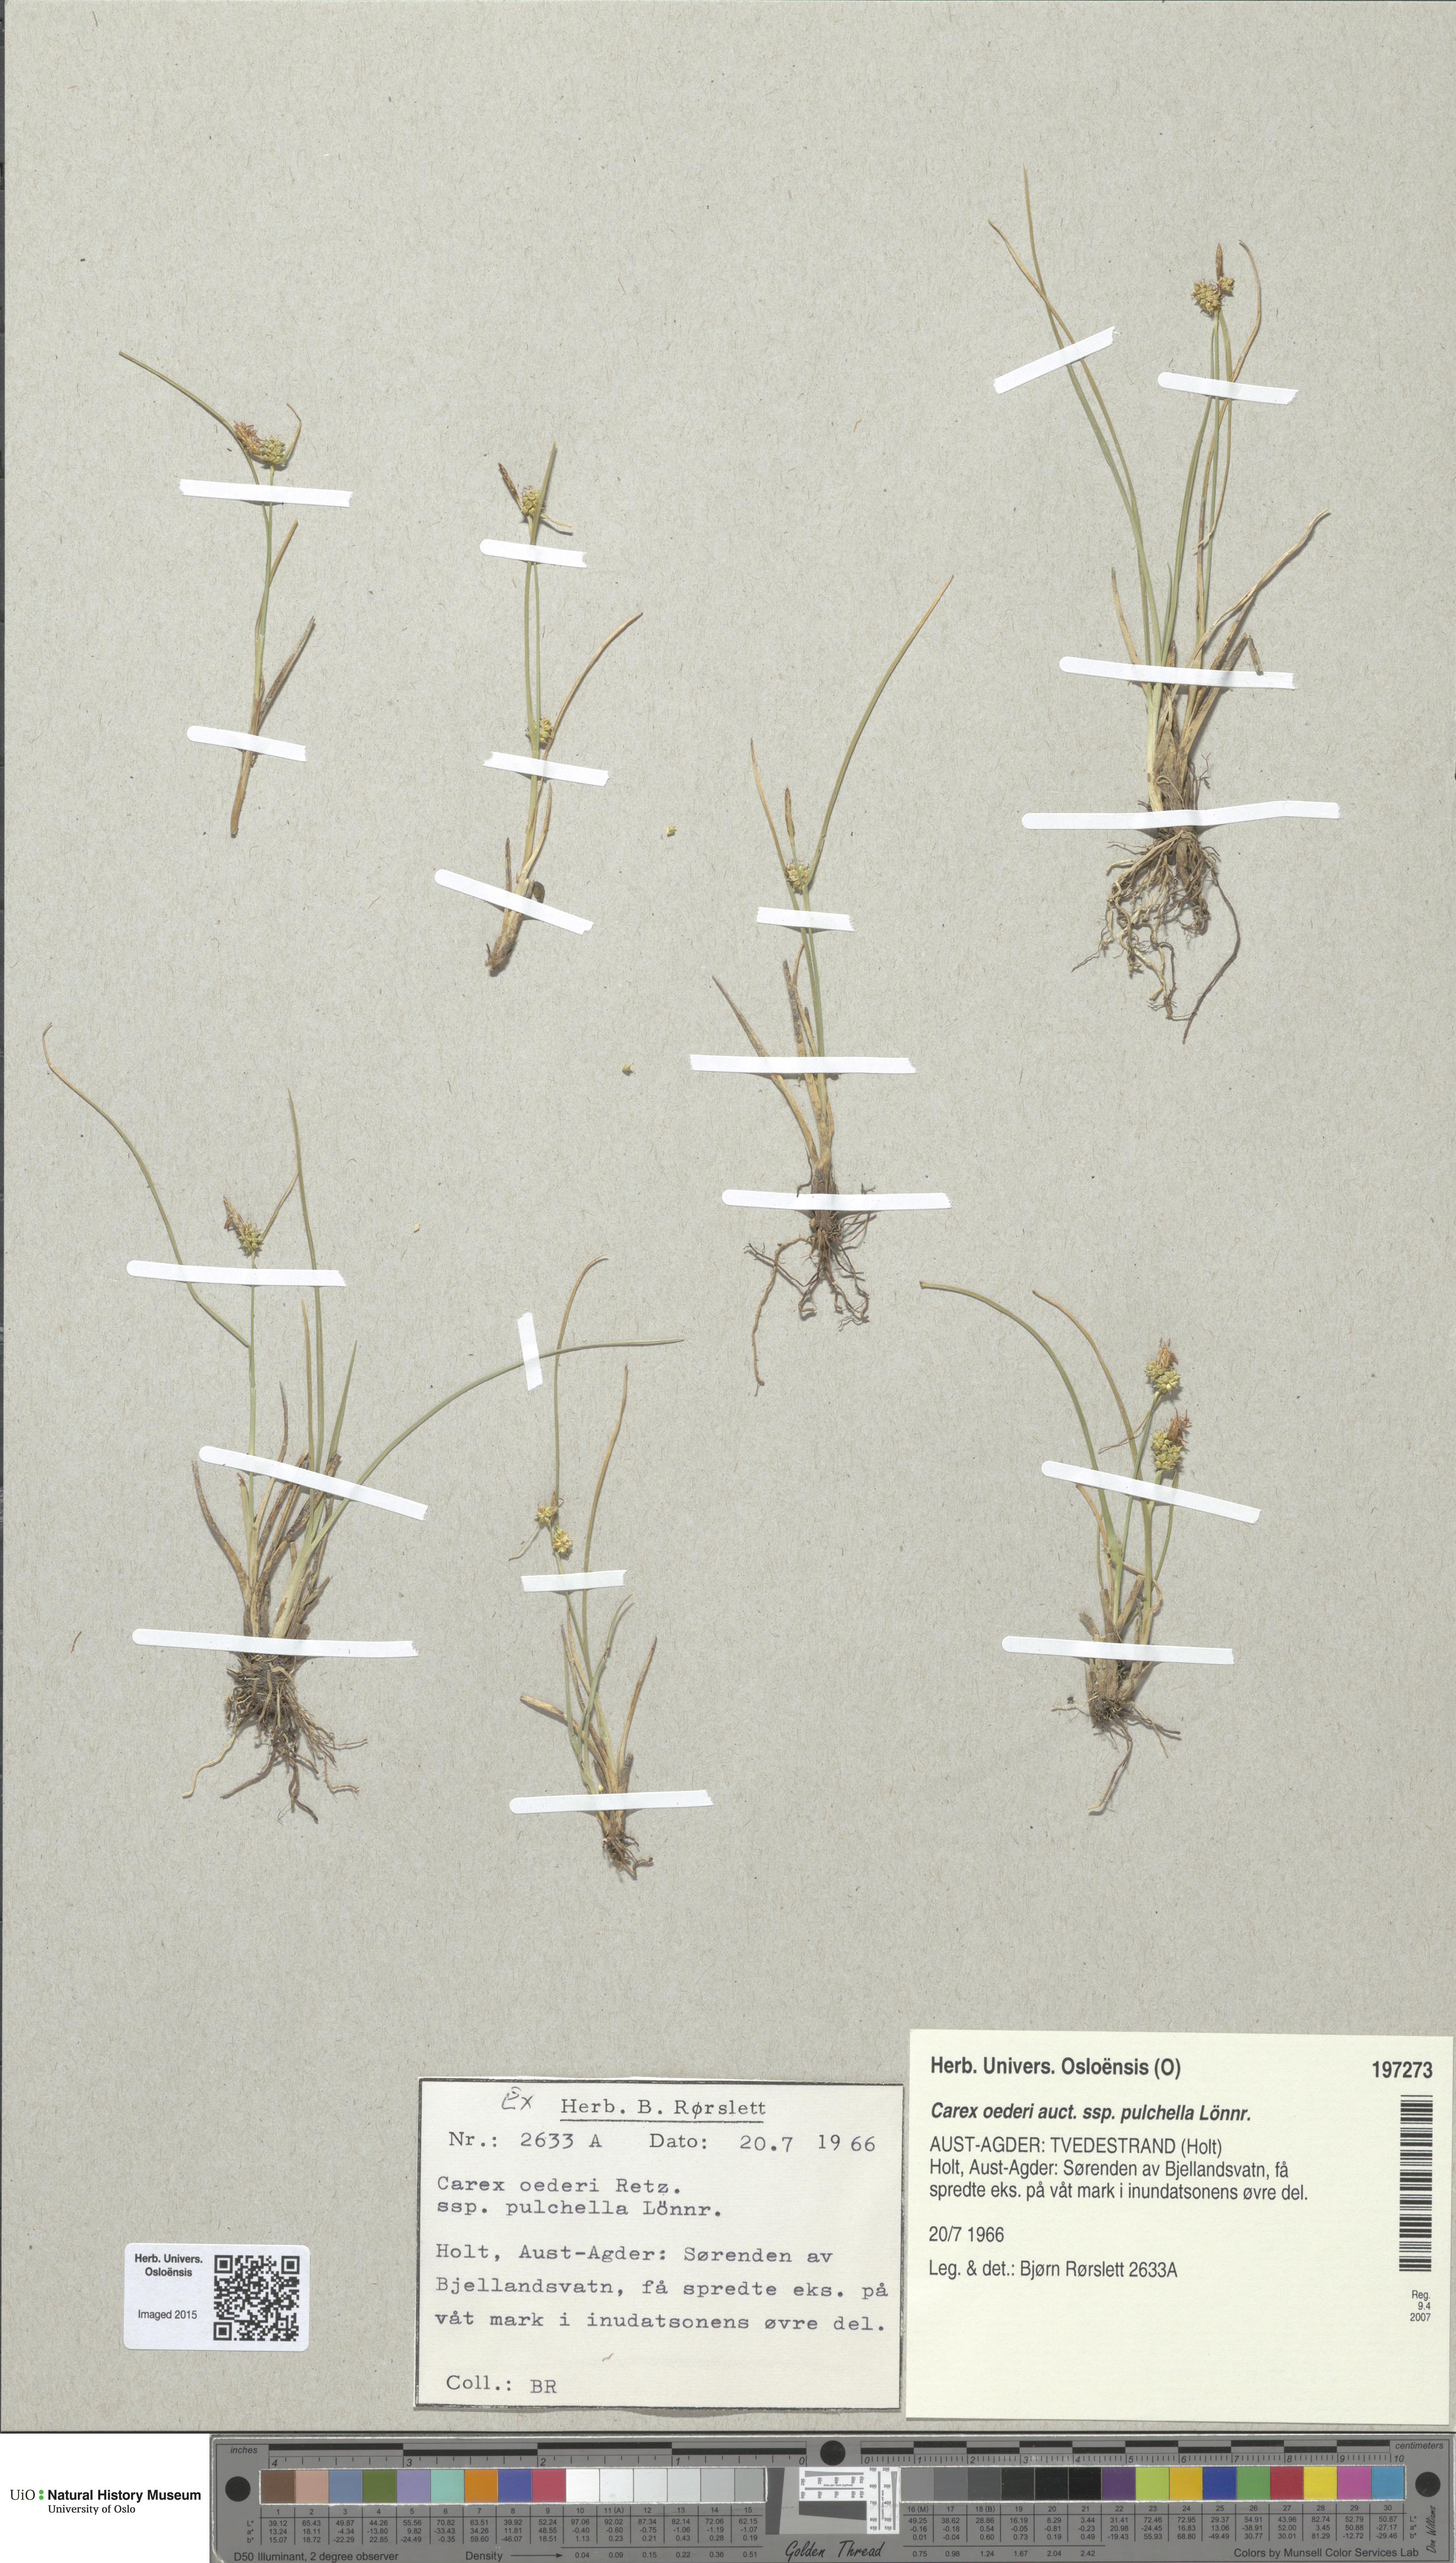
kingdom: Plantae
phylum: Tracheophyta
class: Liliopsida
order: Poales
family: Cyperaceae
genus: Carex
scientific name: Carex oederi
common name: Common & small-fruited yellow-sedge
